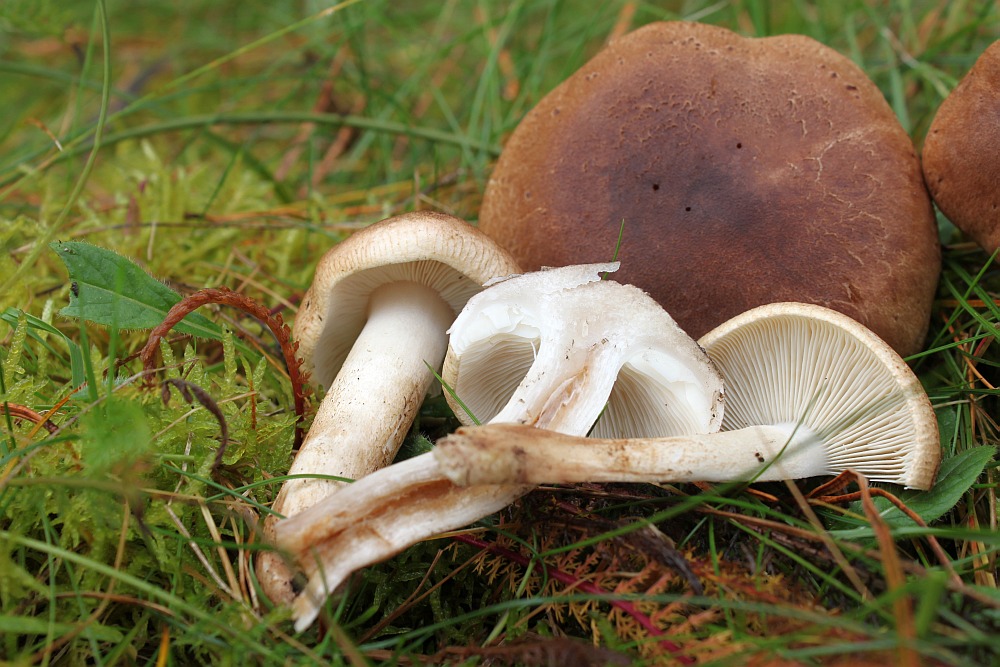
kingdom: Fungi
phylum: Basidiomycota
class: Agaricomycetes
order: Agaricales
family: Tricholomataceae
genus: Tricholoma
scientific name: Tricholoma imbricatum
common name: skællet ridderhat
